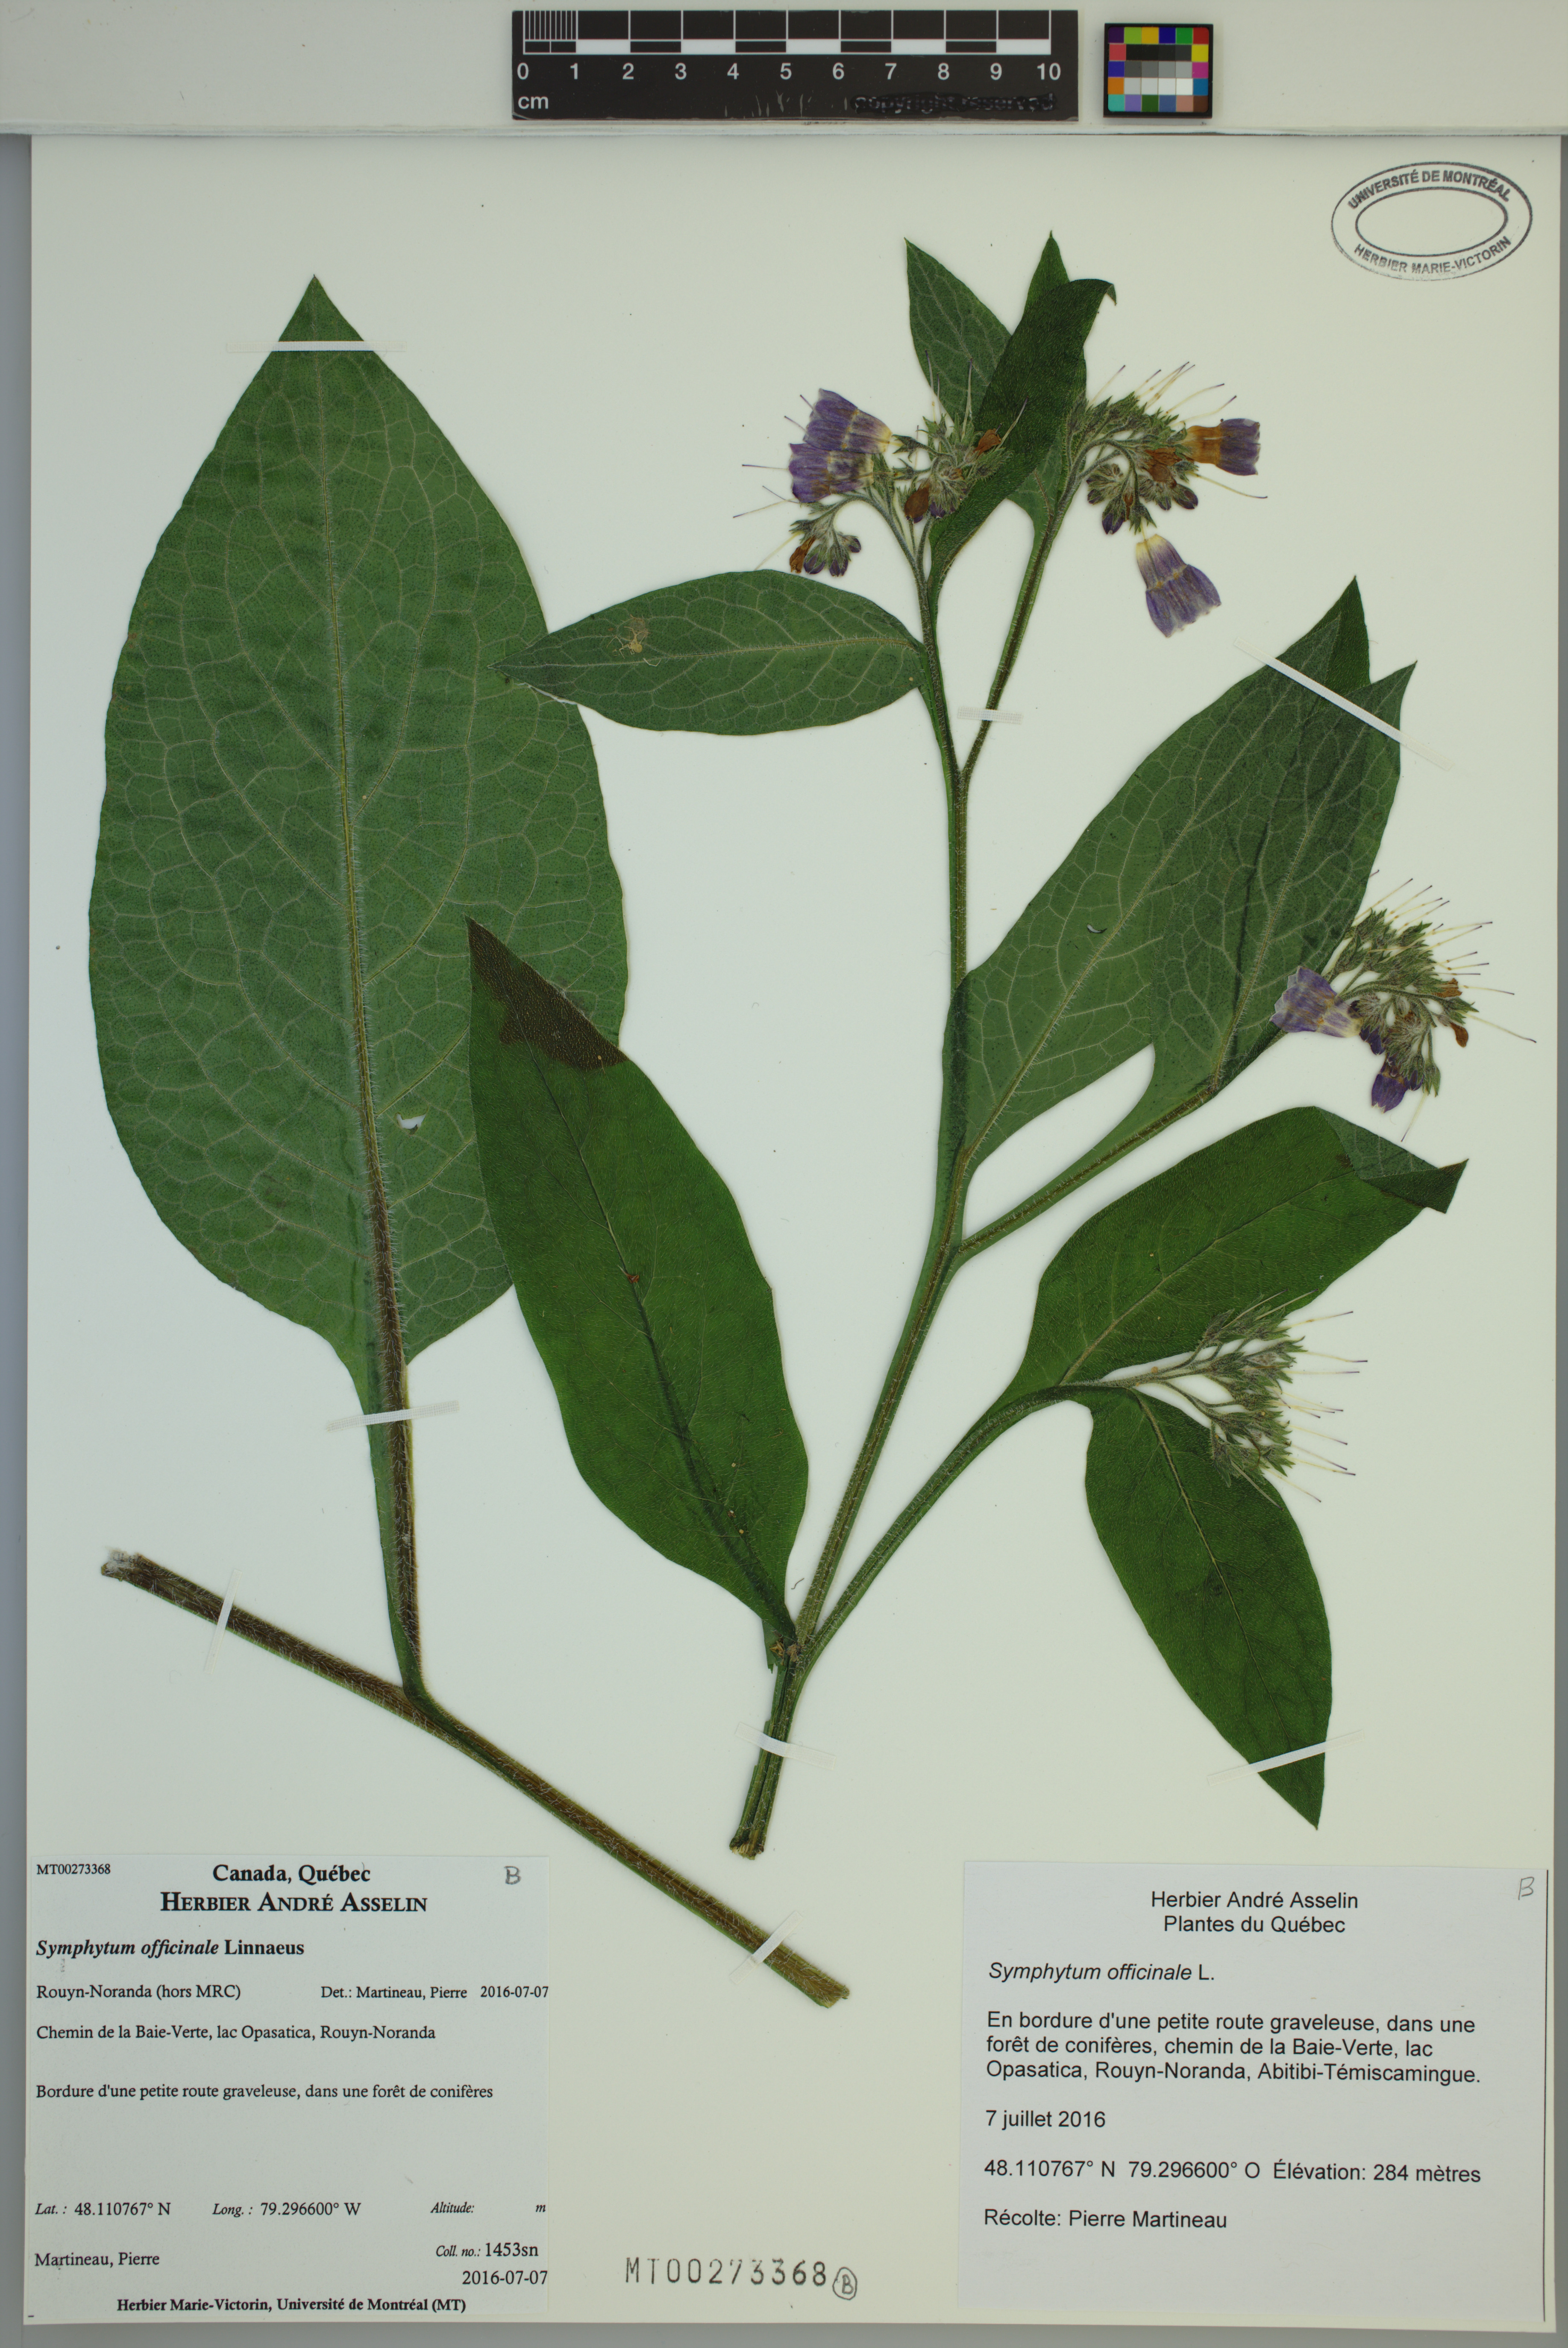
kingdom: Plantae
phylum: Tracheophyta
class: Magnoliopsida
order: Boraginales
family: Boraginaceae
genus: Symphytum
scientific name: Symphytum officinale
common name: Common comfrey
